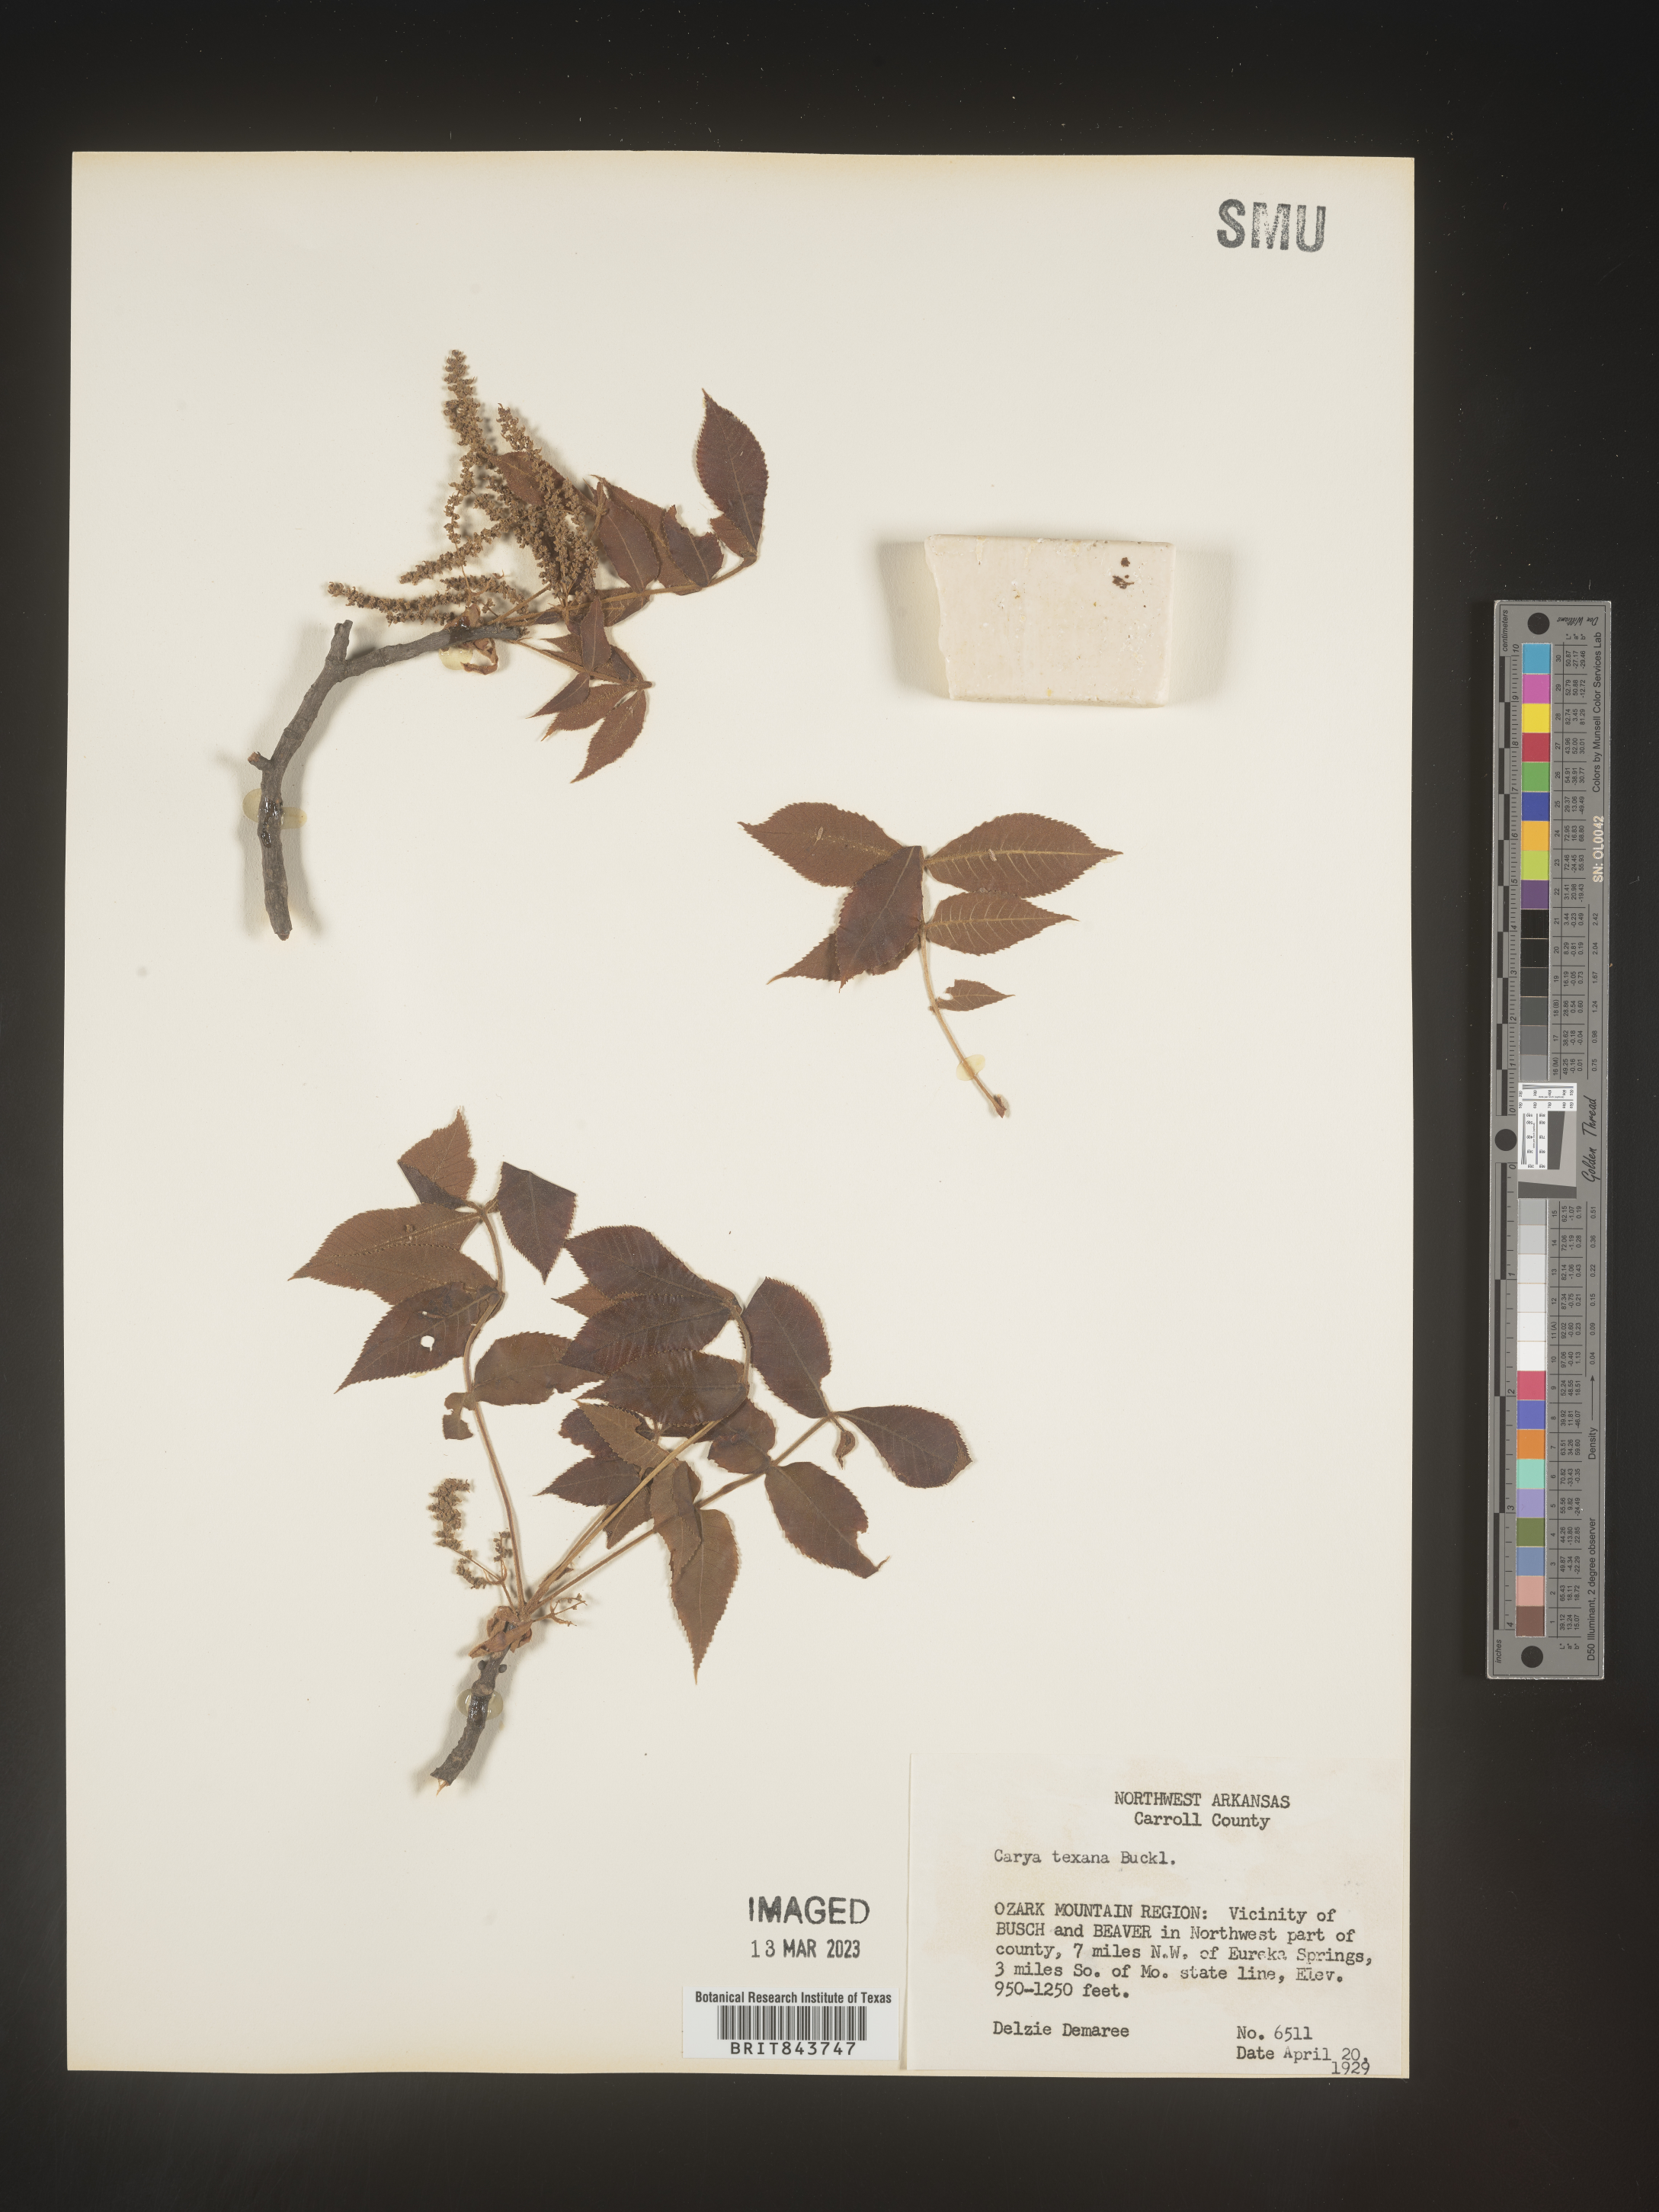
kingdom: Plantae
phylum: Tracheophyta
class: Magnoliopsida
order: Fagales
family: Juglandaceae
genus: Carya
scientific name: Carya texana
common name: Black hickory
